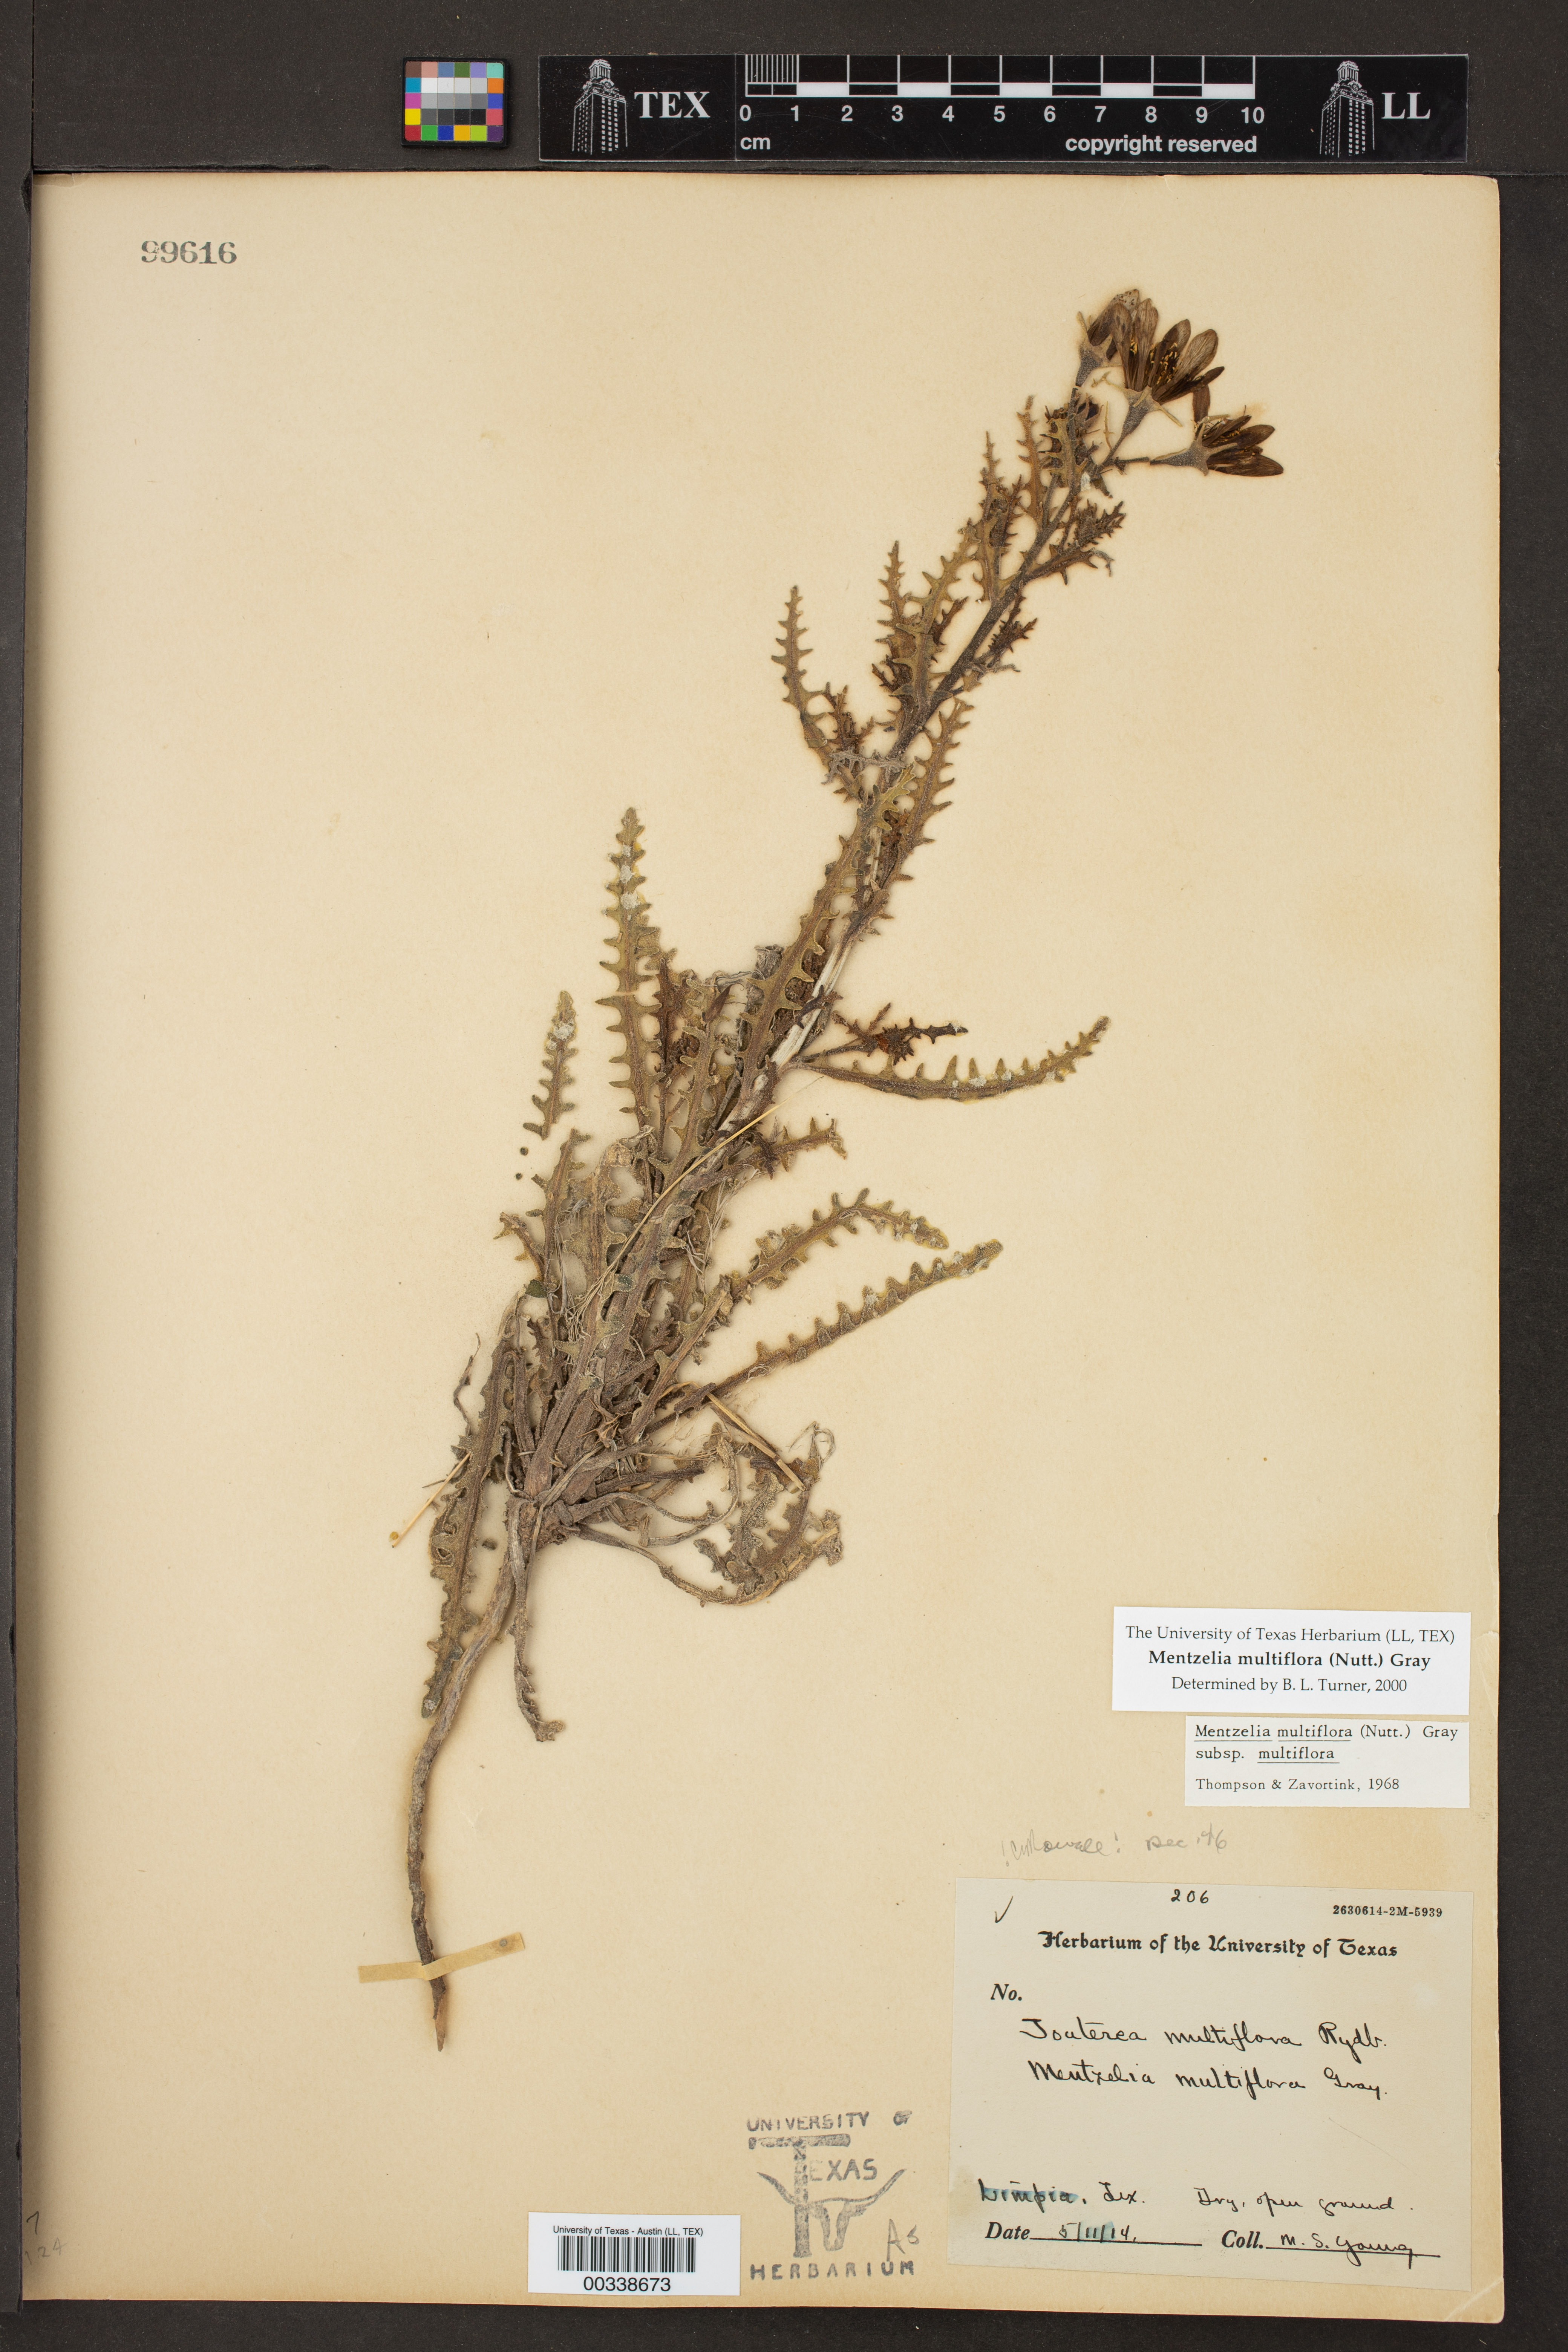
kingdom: Plantae
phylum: Tracheophyta
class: Magnoliopsida
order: Cornales
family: Loasaceae
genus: Mentzelia
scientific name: Mentzelia multiflora
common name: Adonis blazingstar
